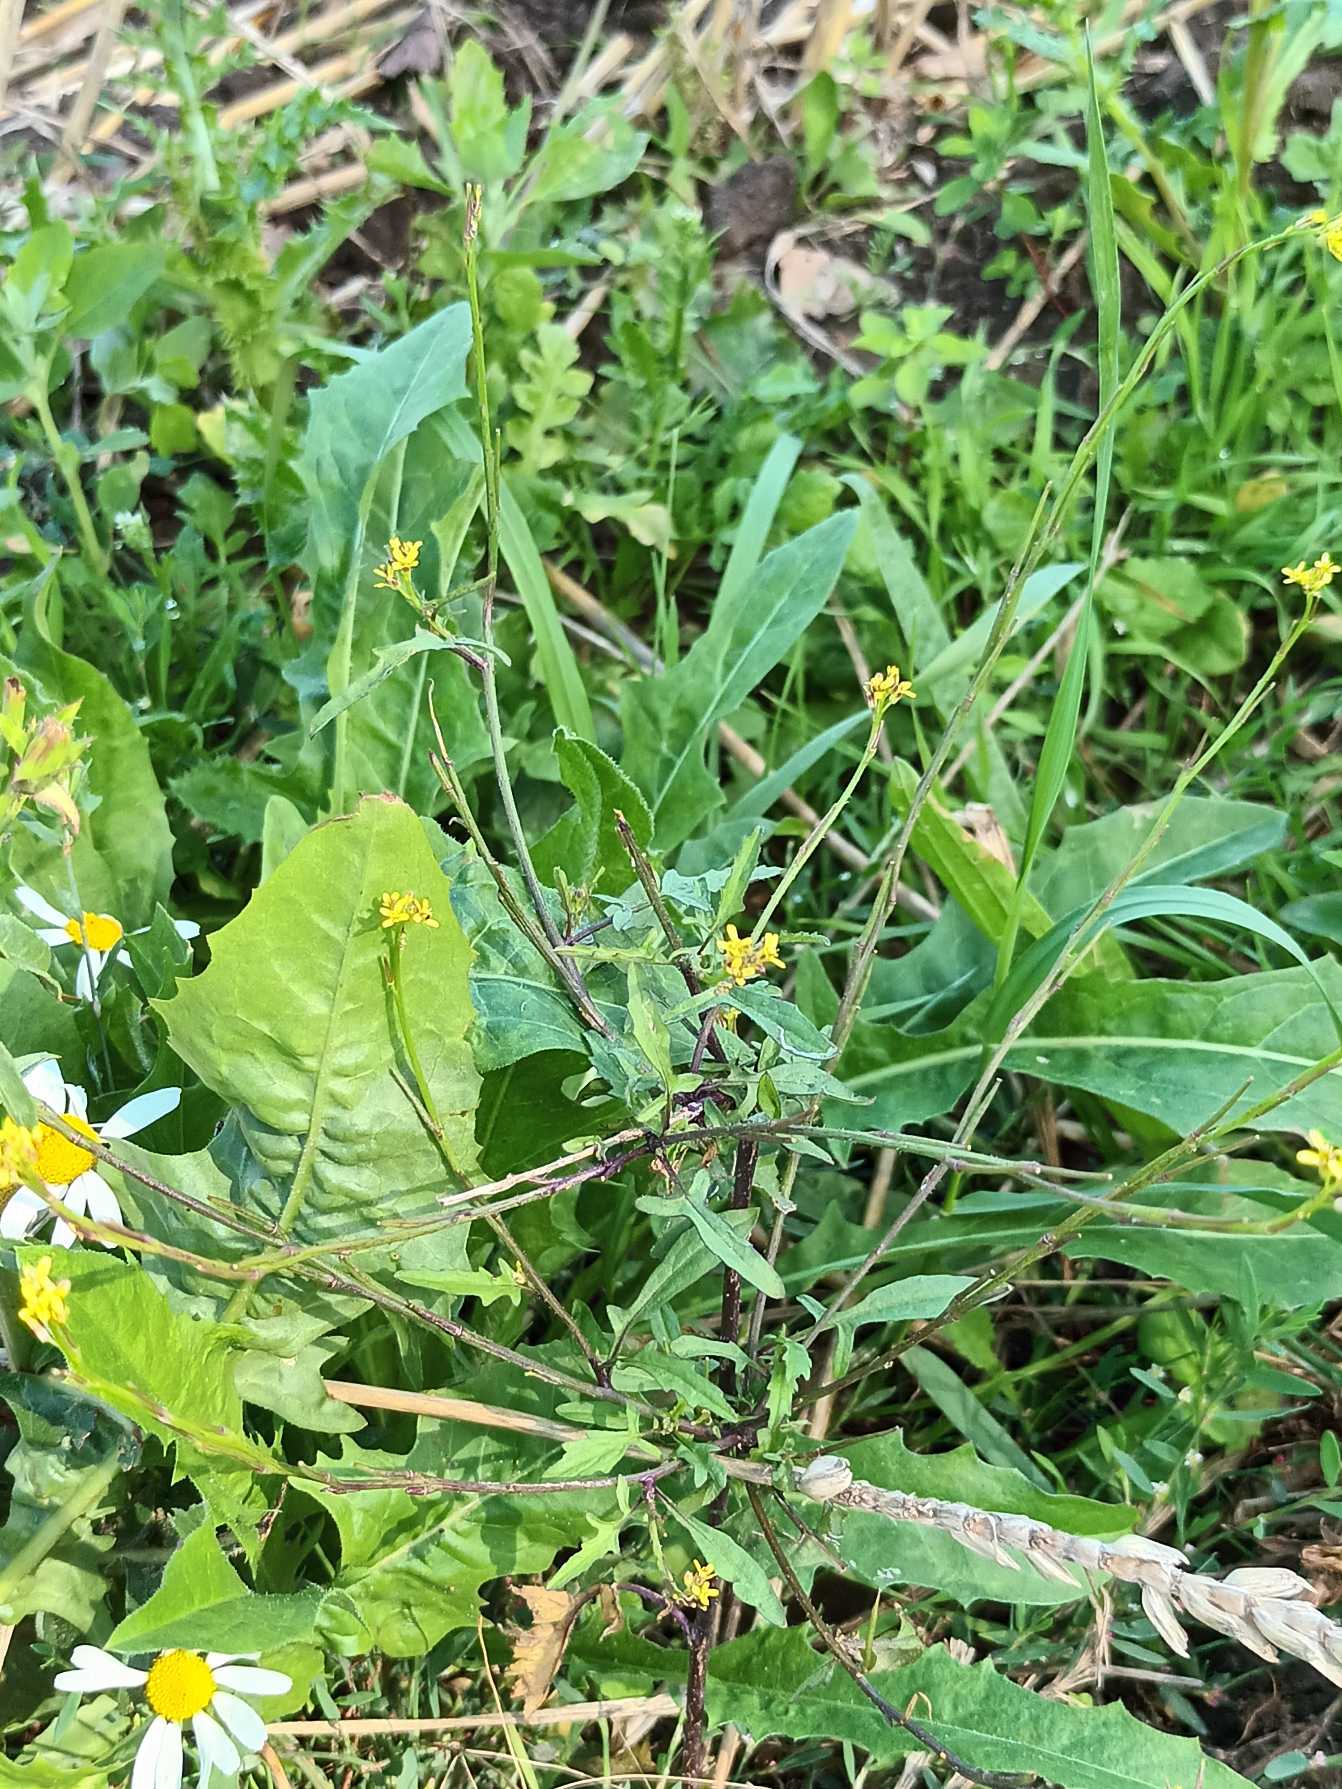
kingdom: Plantae
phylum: Tracheophyta
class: Magnoliopsida
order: Brassicales
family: Brassicaceae
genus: Sisymbrium
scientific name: Sisymbrium officinale
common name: Rank vejsennep
